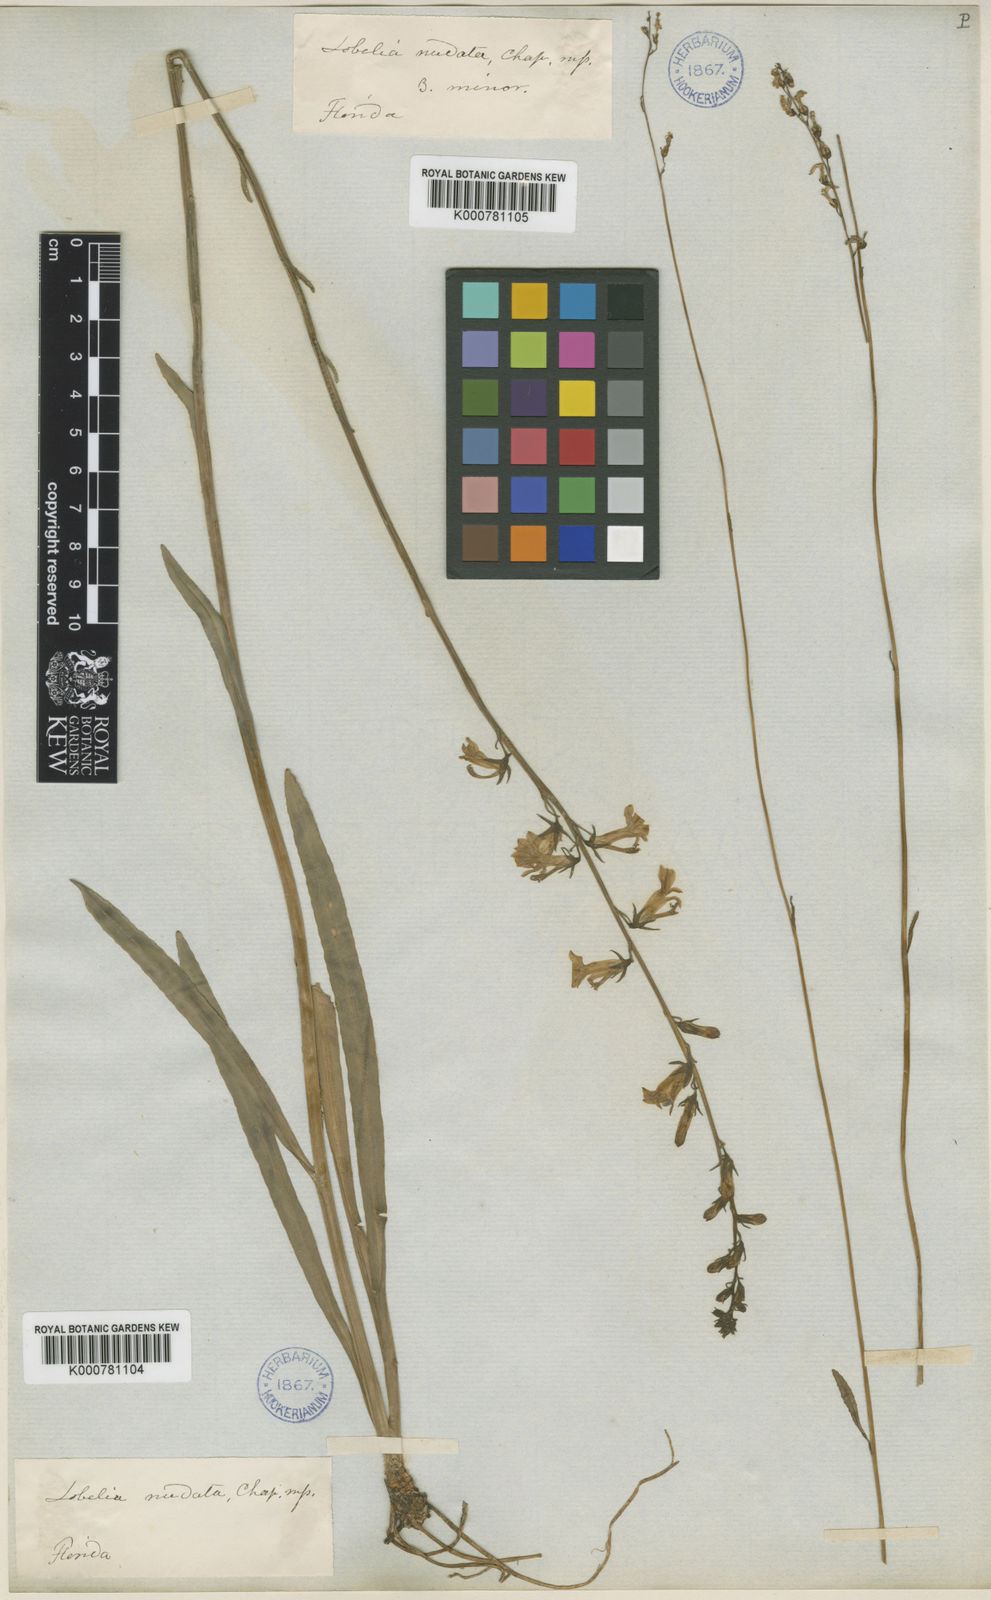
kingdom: Plantae
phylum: Tracheophyta
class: Magnoliopsida
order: Asterales
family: Campanulaceae
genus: Lobelia
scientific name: Lobelia paludosa
